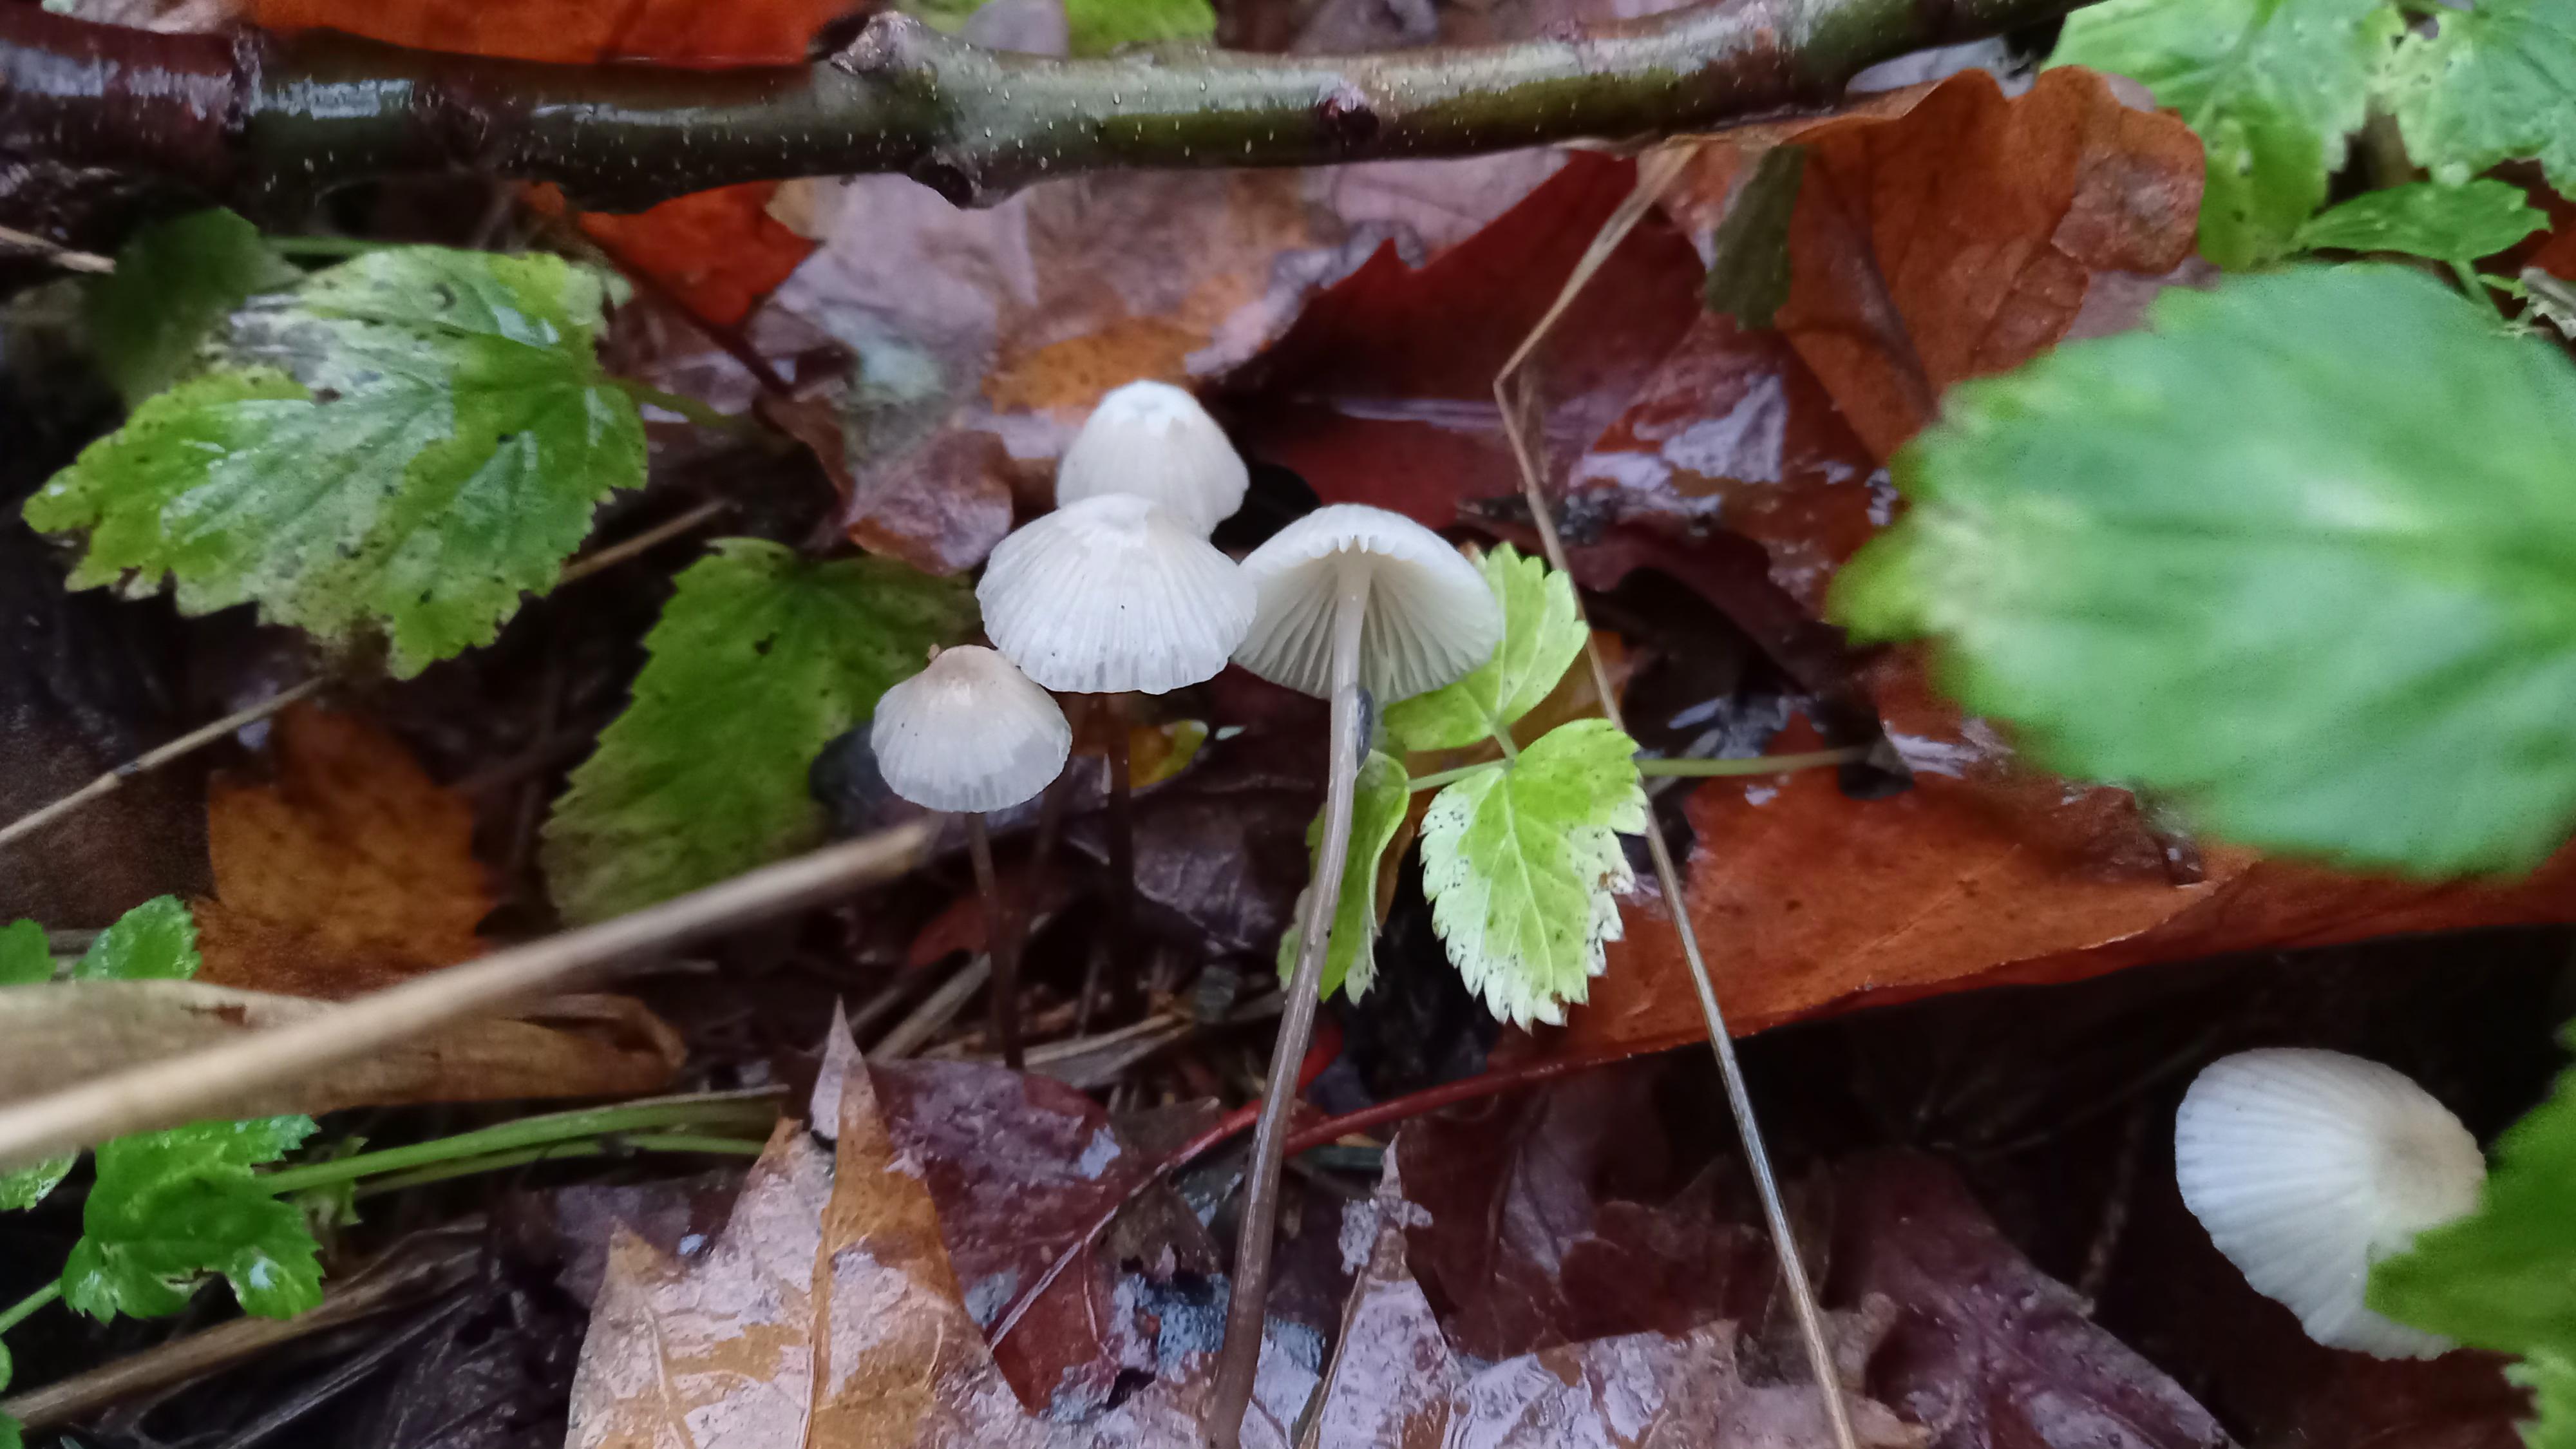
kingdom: Fungi
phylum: Basidiomycota
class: Agaricomycetes
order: Agaricales
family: Mycenaceae
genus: Mycena
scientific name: Mycena
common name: huesvamp
